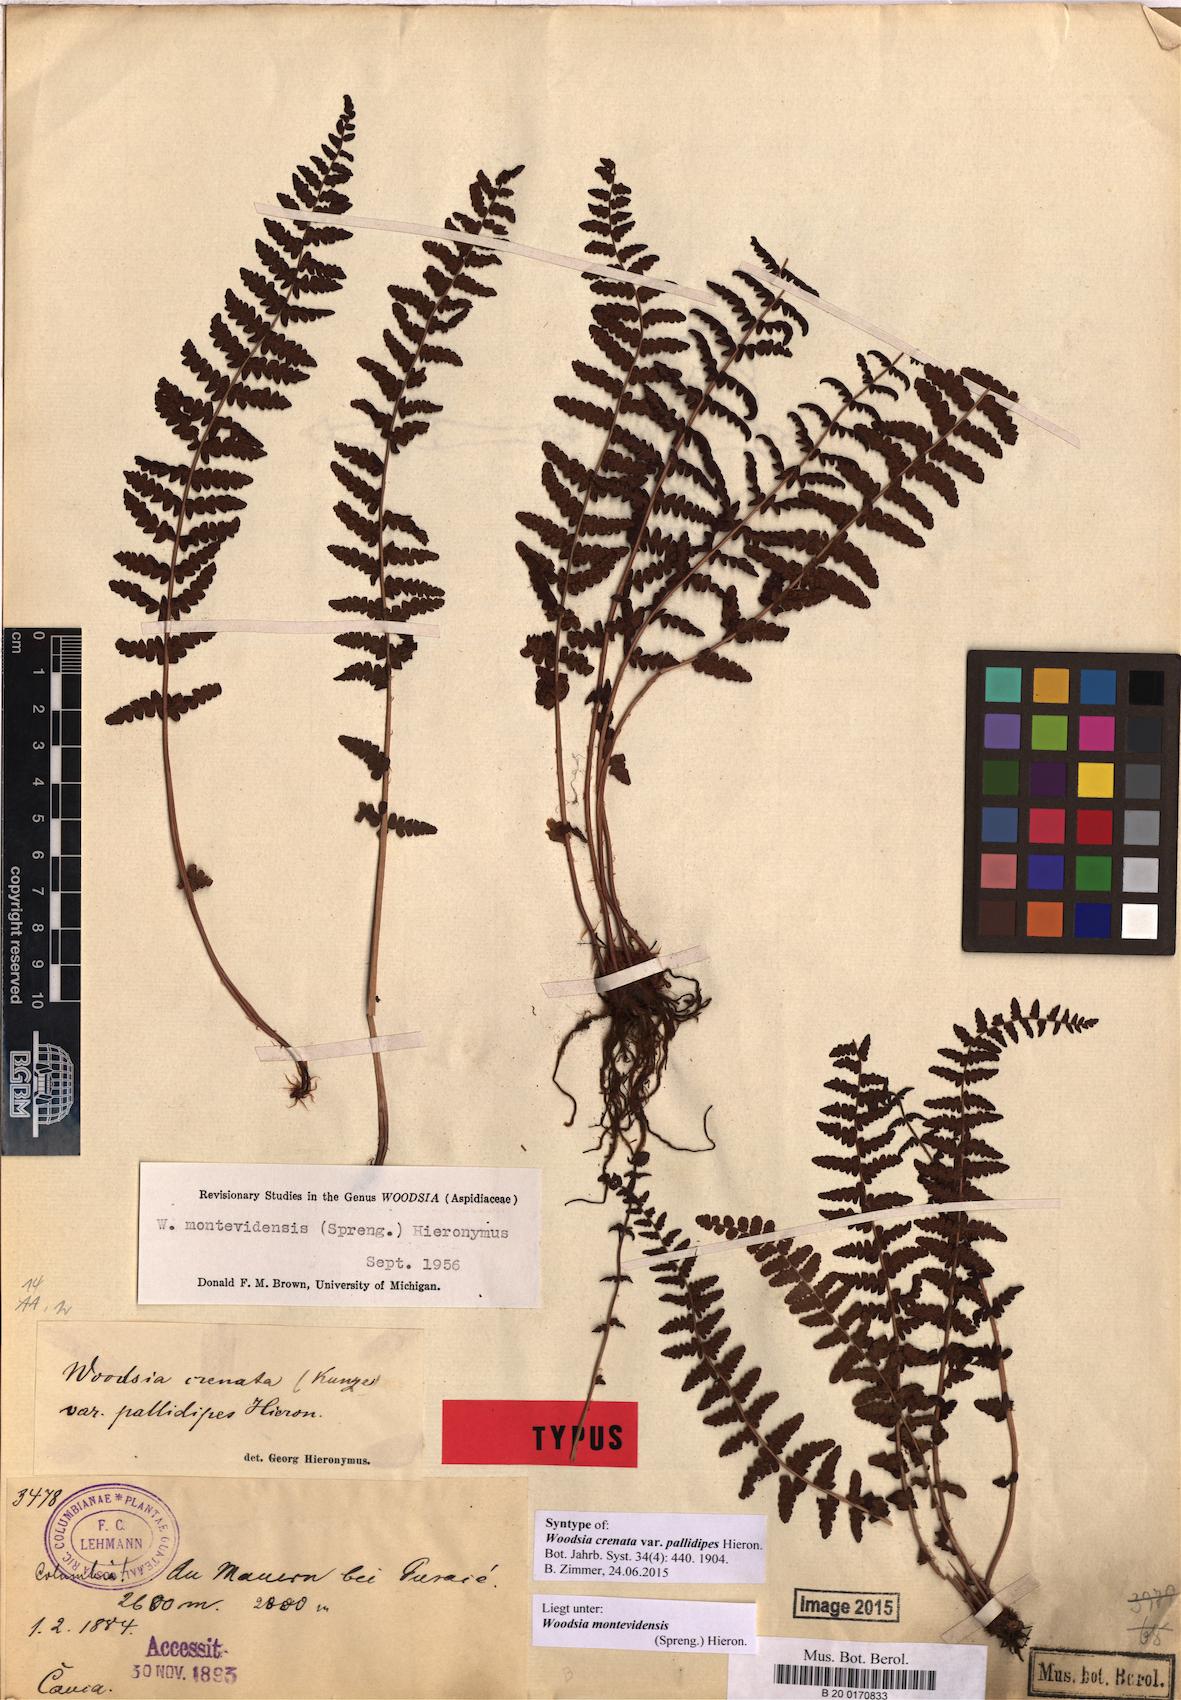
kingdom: Plantae
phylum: Tracheophyta
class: Polypodiopsida
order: Polypodiales
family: Woodsiaceae
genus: Physematium
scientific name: Physematium montevidense
